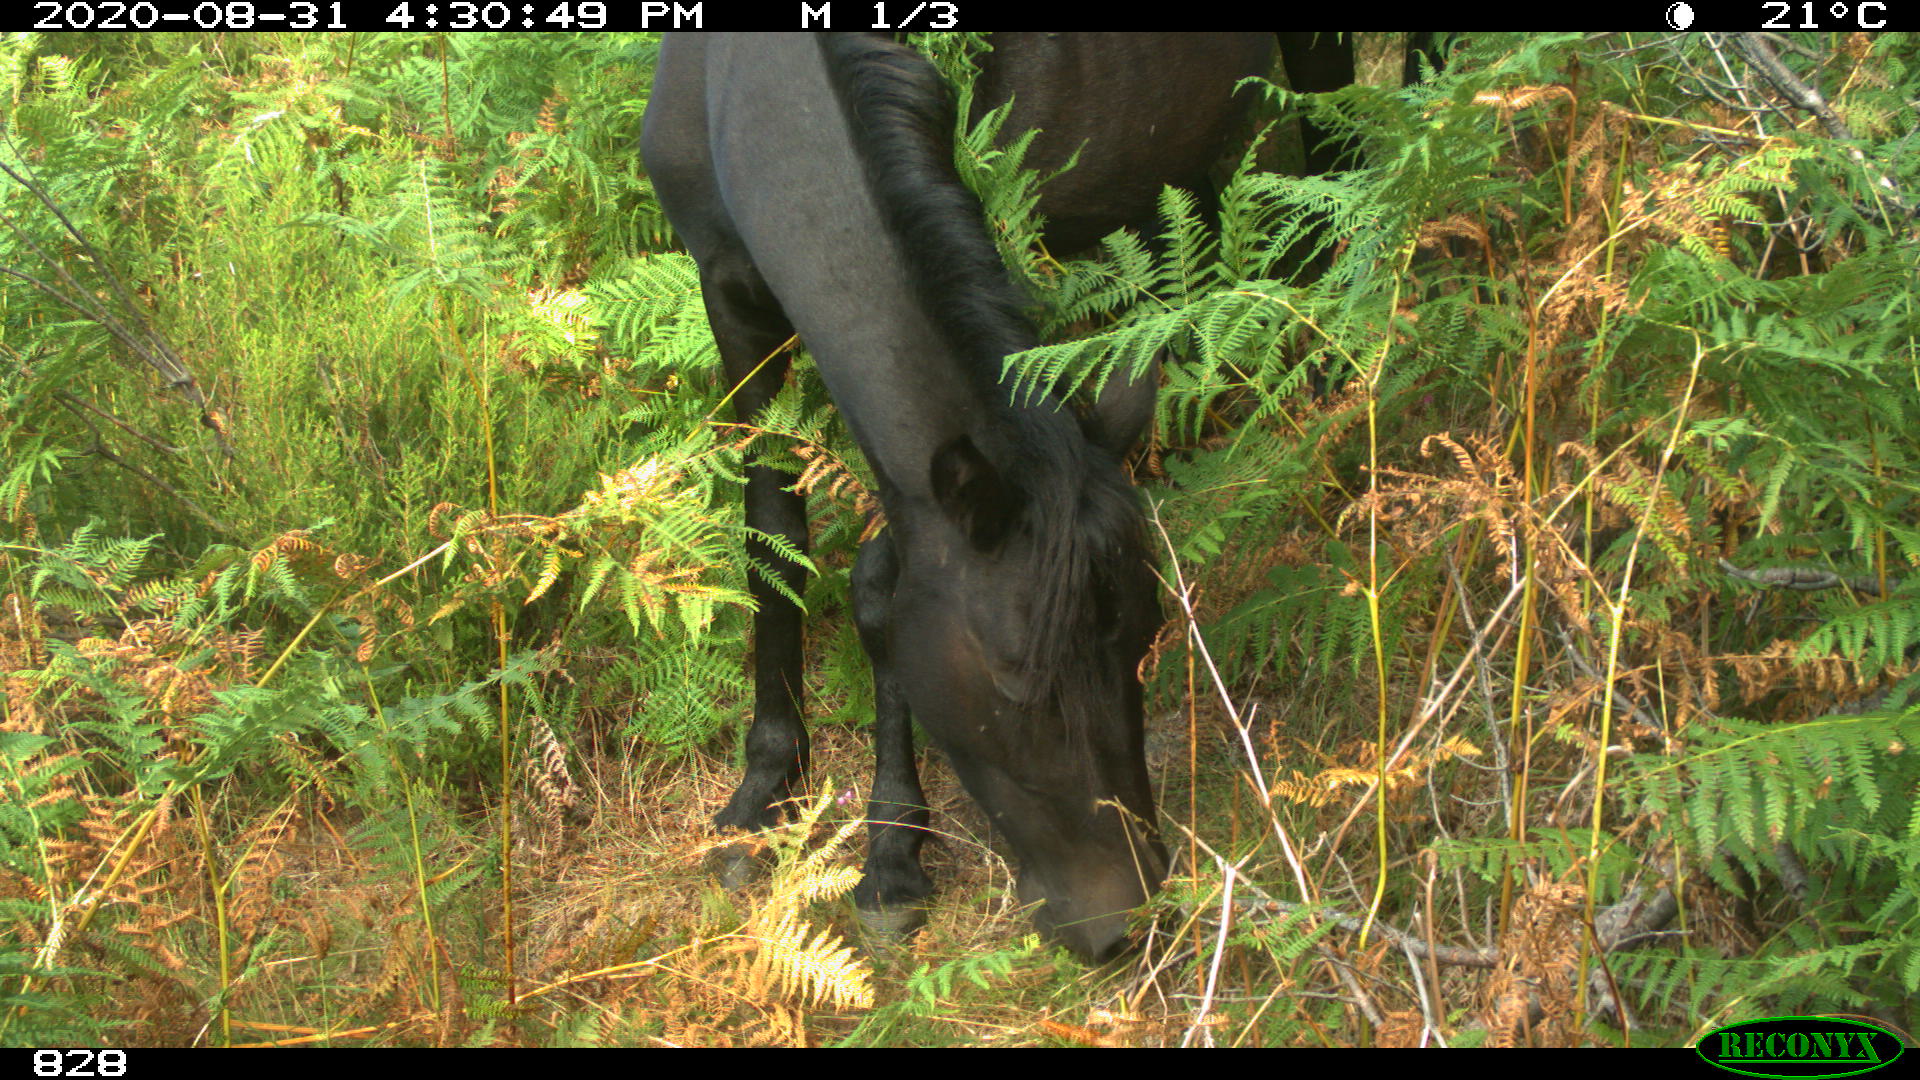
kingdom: Animalia
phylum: Chordata
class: Mammalia
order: Perissodactyla
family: Equidae
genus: Equus
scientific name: Equus caballus
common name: Horse
